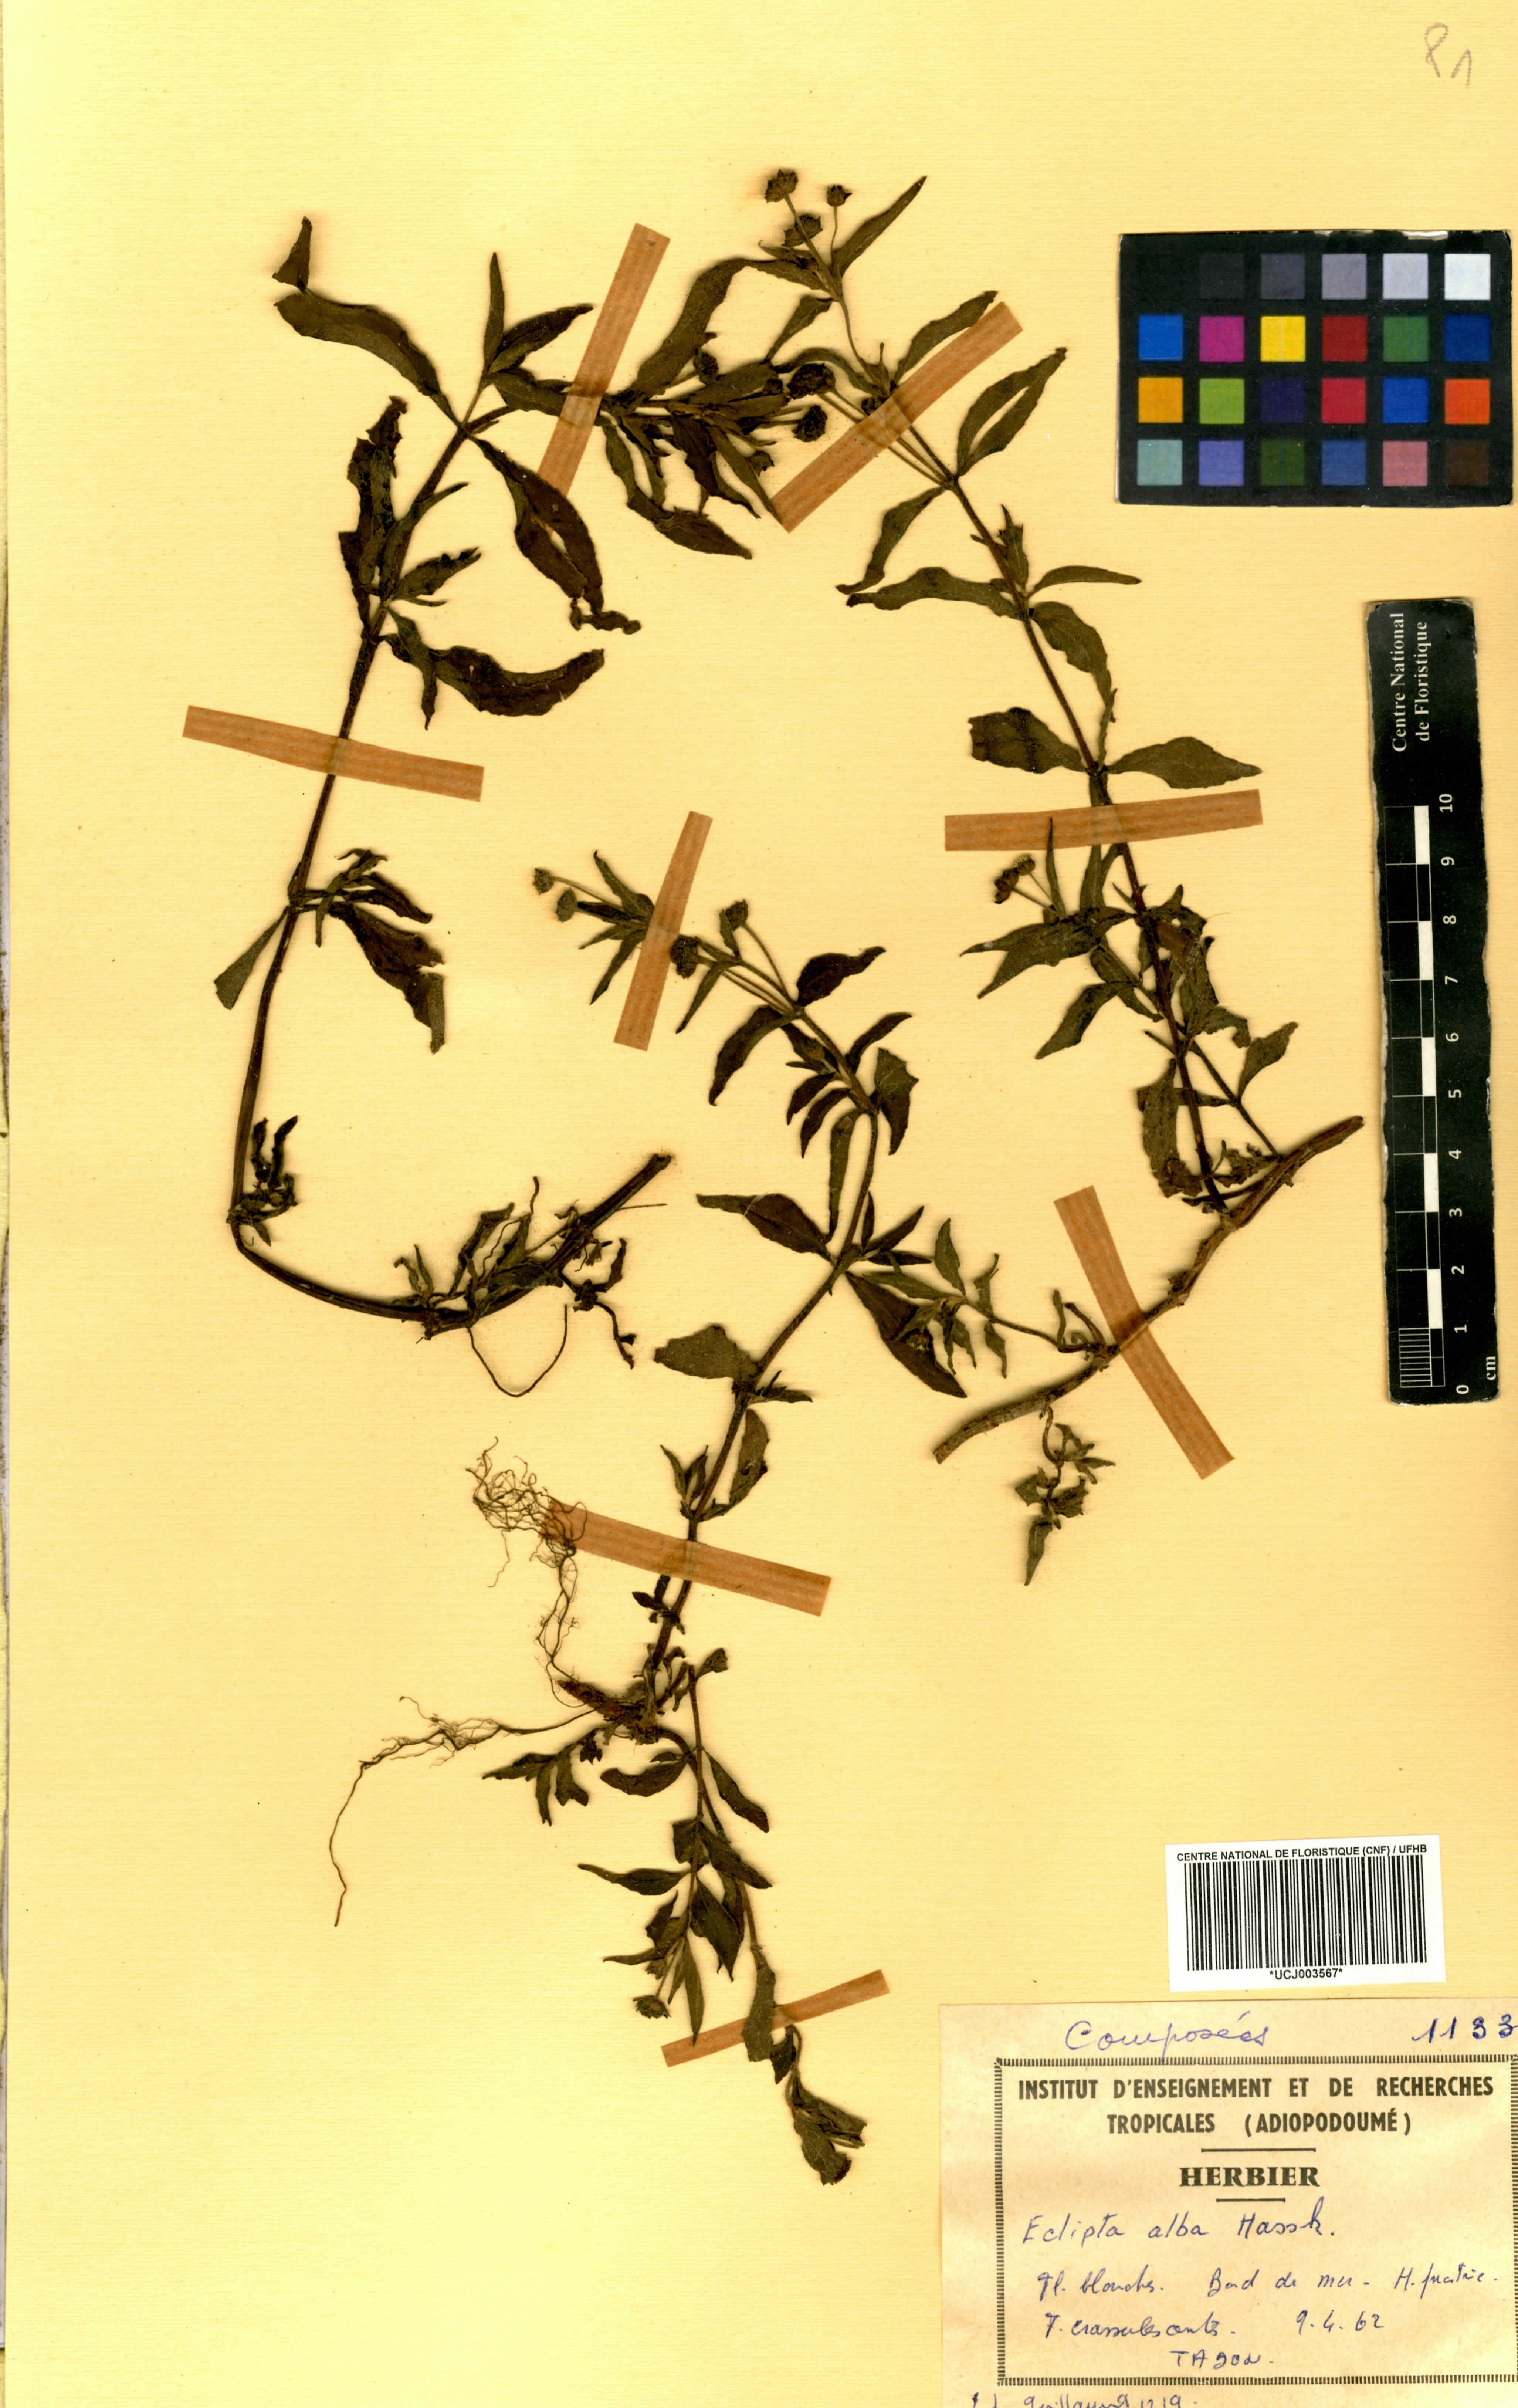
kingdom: Plantae
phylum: Tracheophyta
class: Magnoliopsida
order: Asterales
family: Asteraceae
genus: Eclipta
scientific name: Eclipta alba
